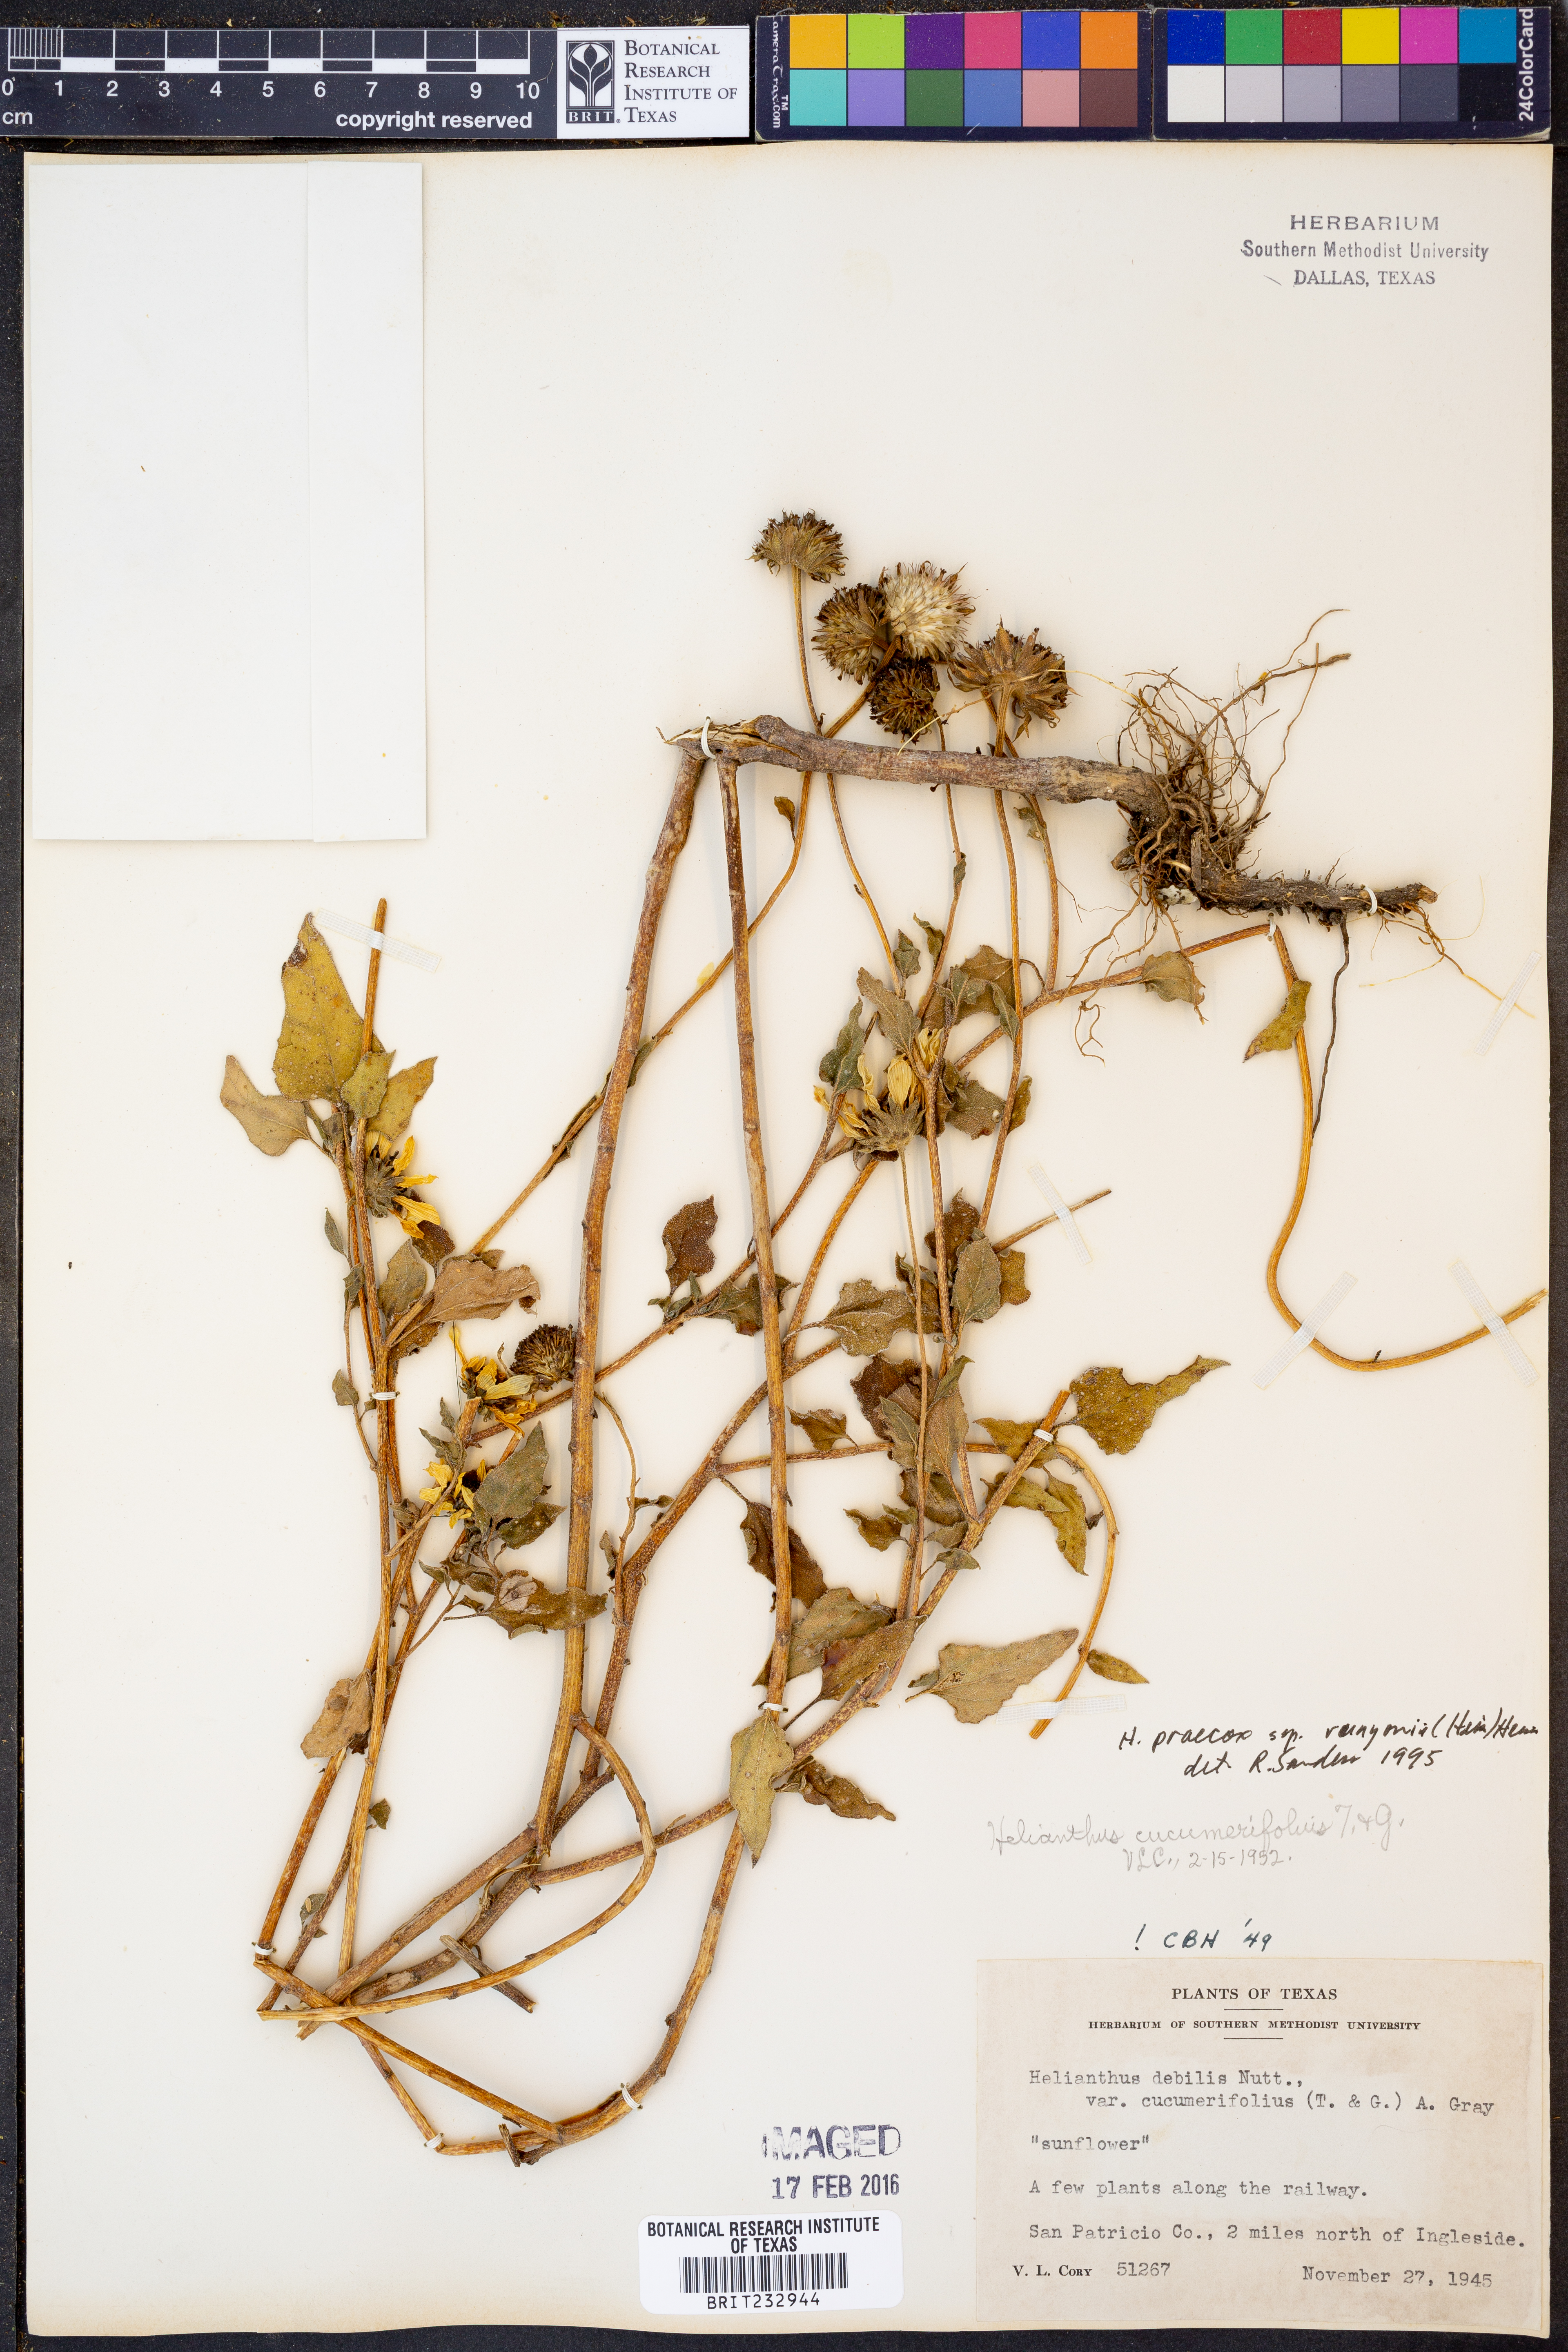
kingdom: Plantae
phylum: Tracheophyta
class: Magnoliopsida
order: Asterales
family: Asteraceae
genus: Helianthus
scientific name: Helianthus praecox
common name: Texas sunflower
